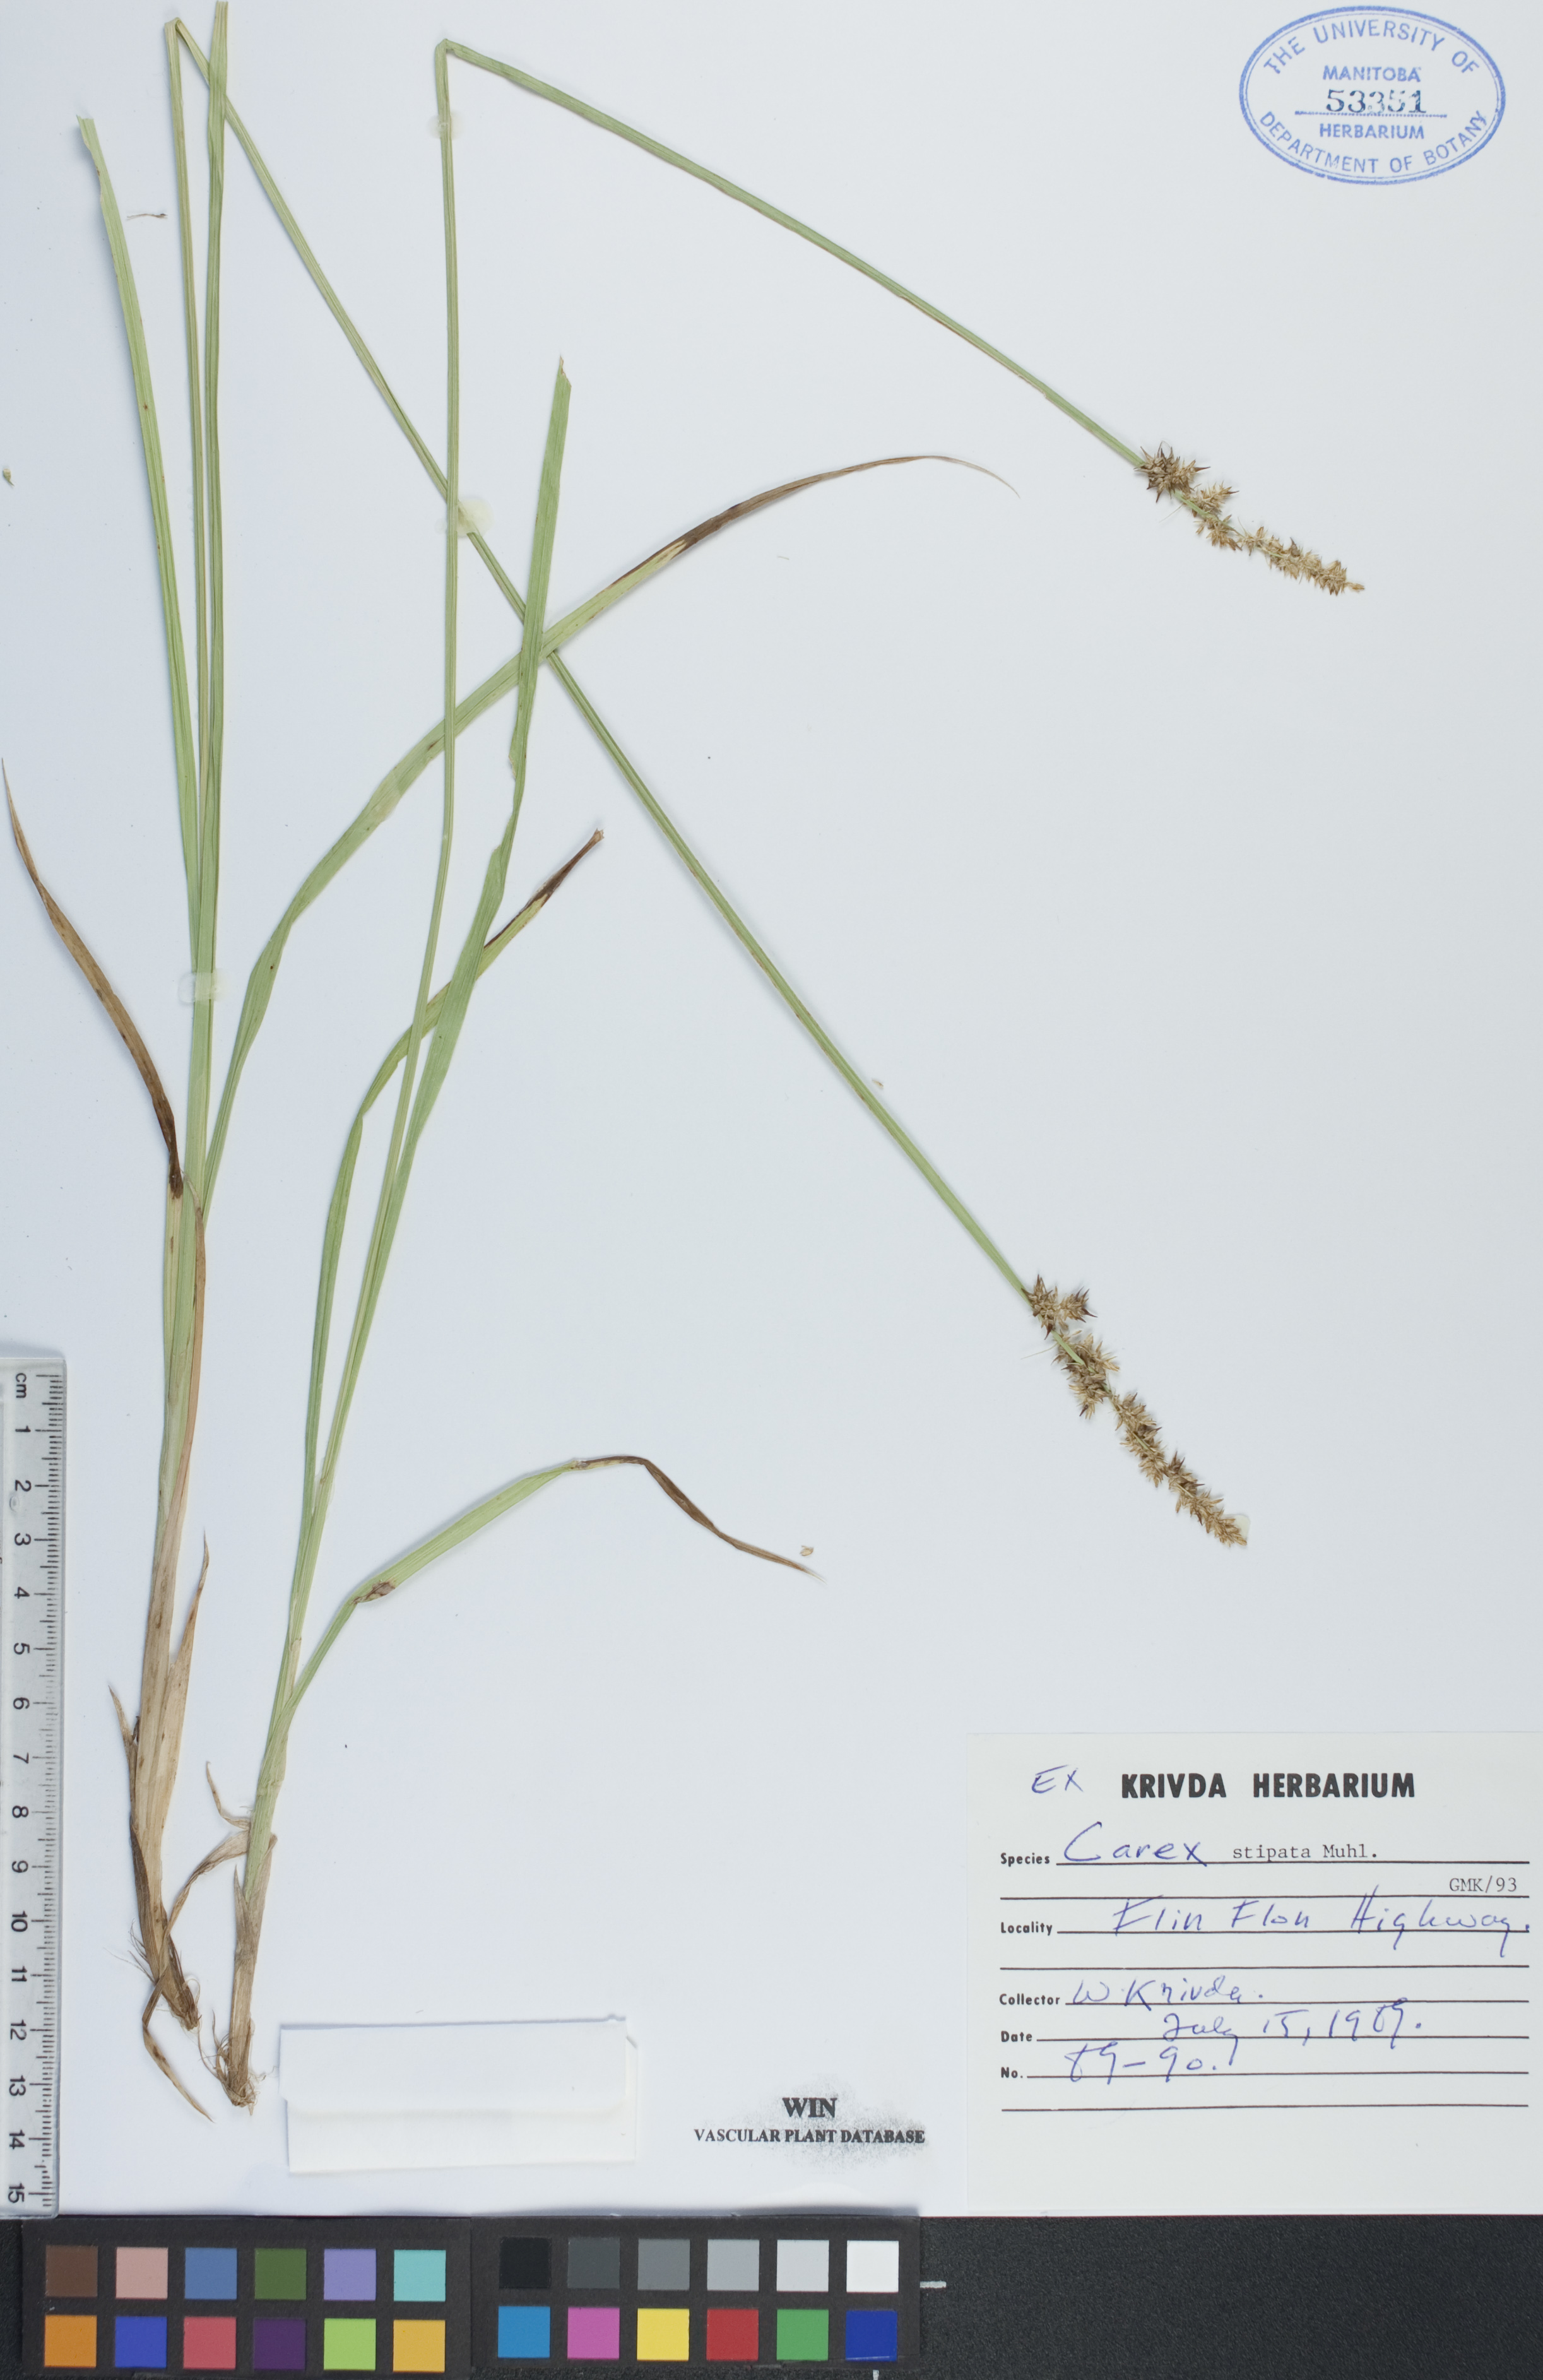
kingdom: Plantae
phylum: Tracheophyta
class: Liliopsida
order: Poales
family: Cyperaceae
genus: Carex
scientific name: Carex stipata
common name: Awl-fruited sedge
